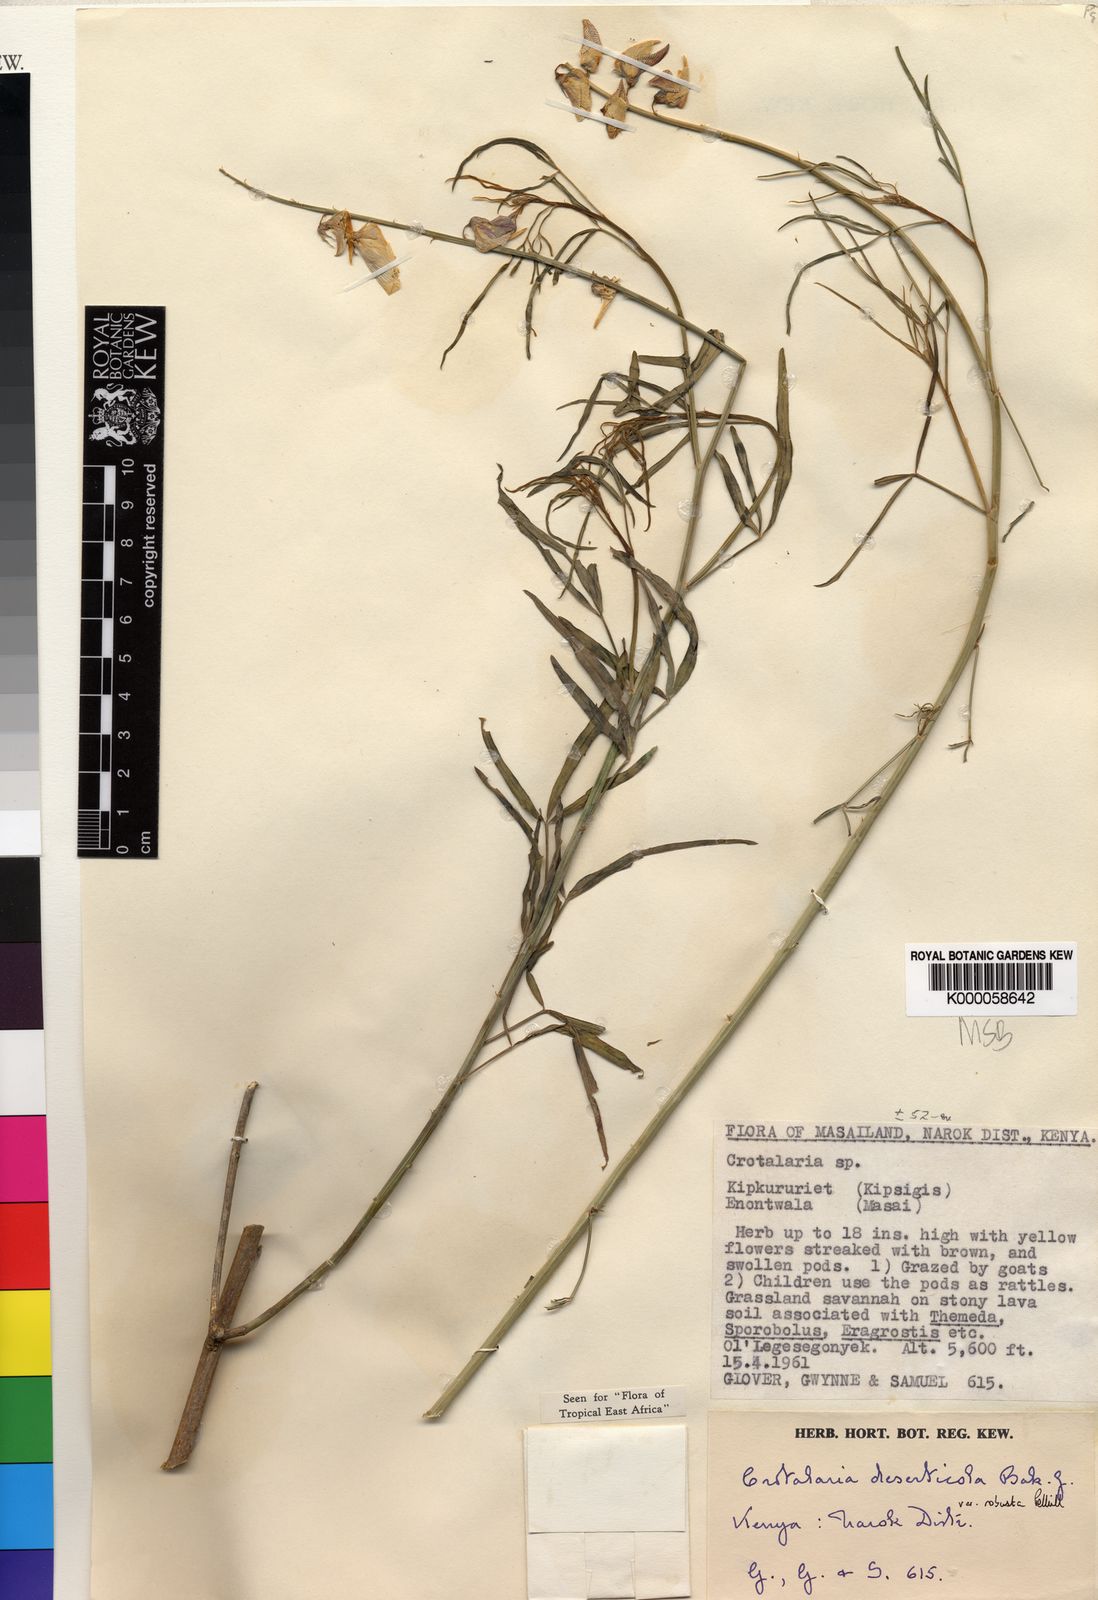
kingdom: Plantae
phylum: Tracheophyta
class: Magnoliopsida
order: Fabales
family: Fabaceae
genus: Crotalaria
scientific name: Crotalaria deserticola
